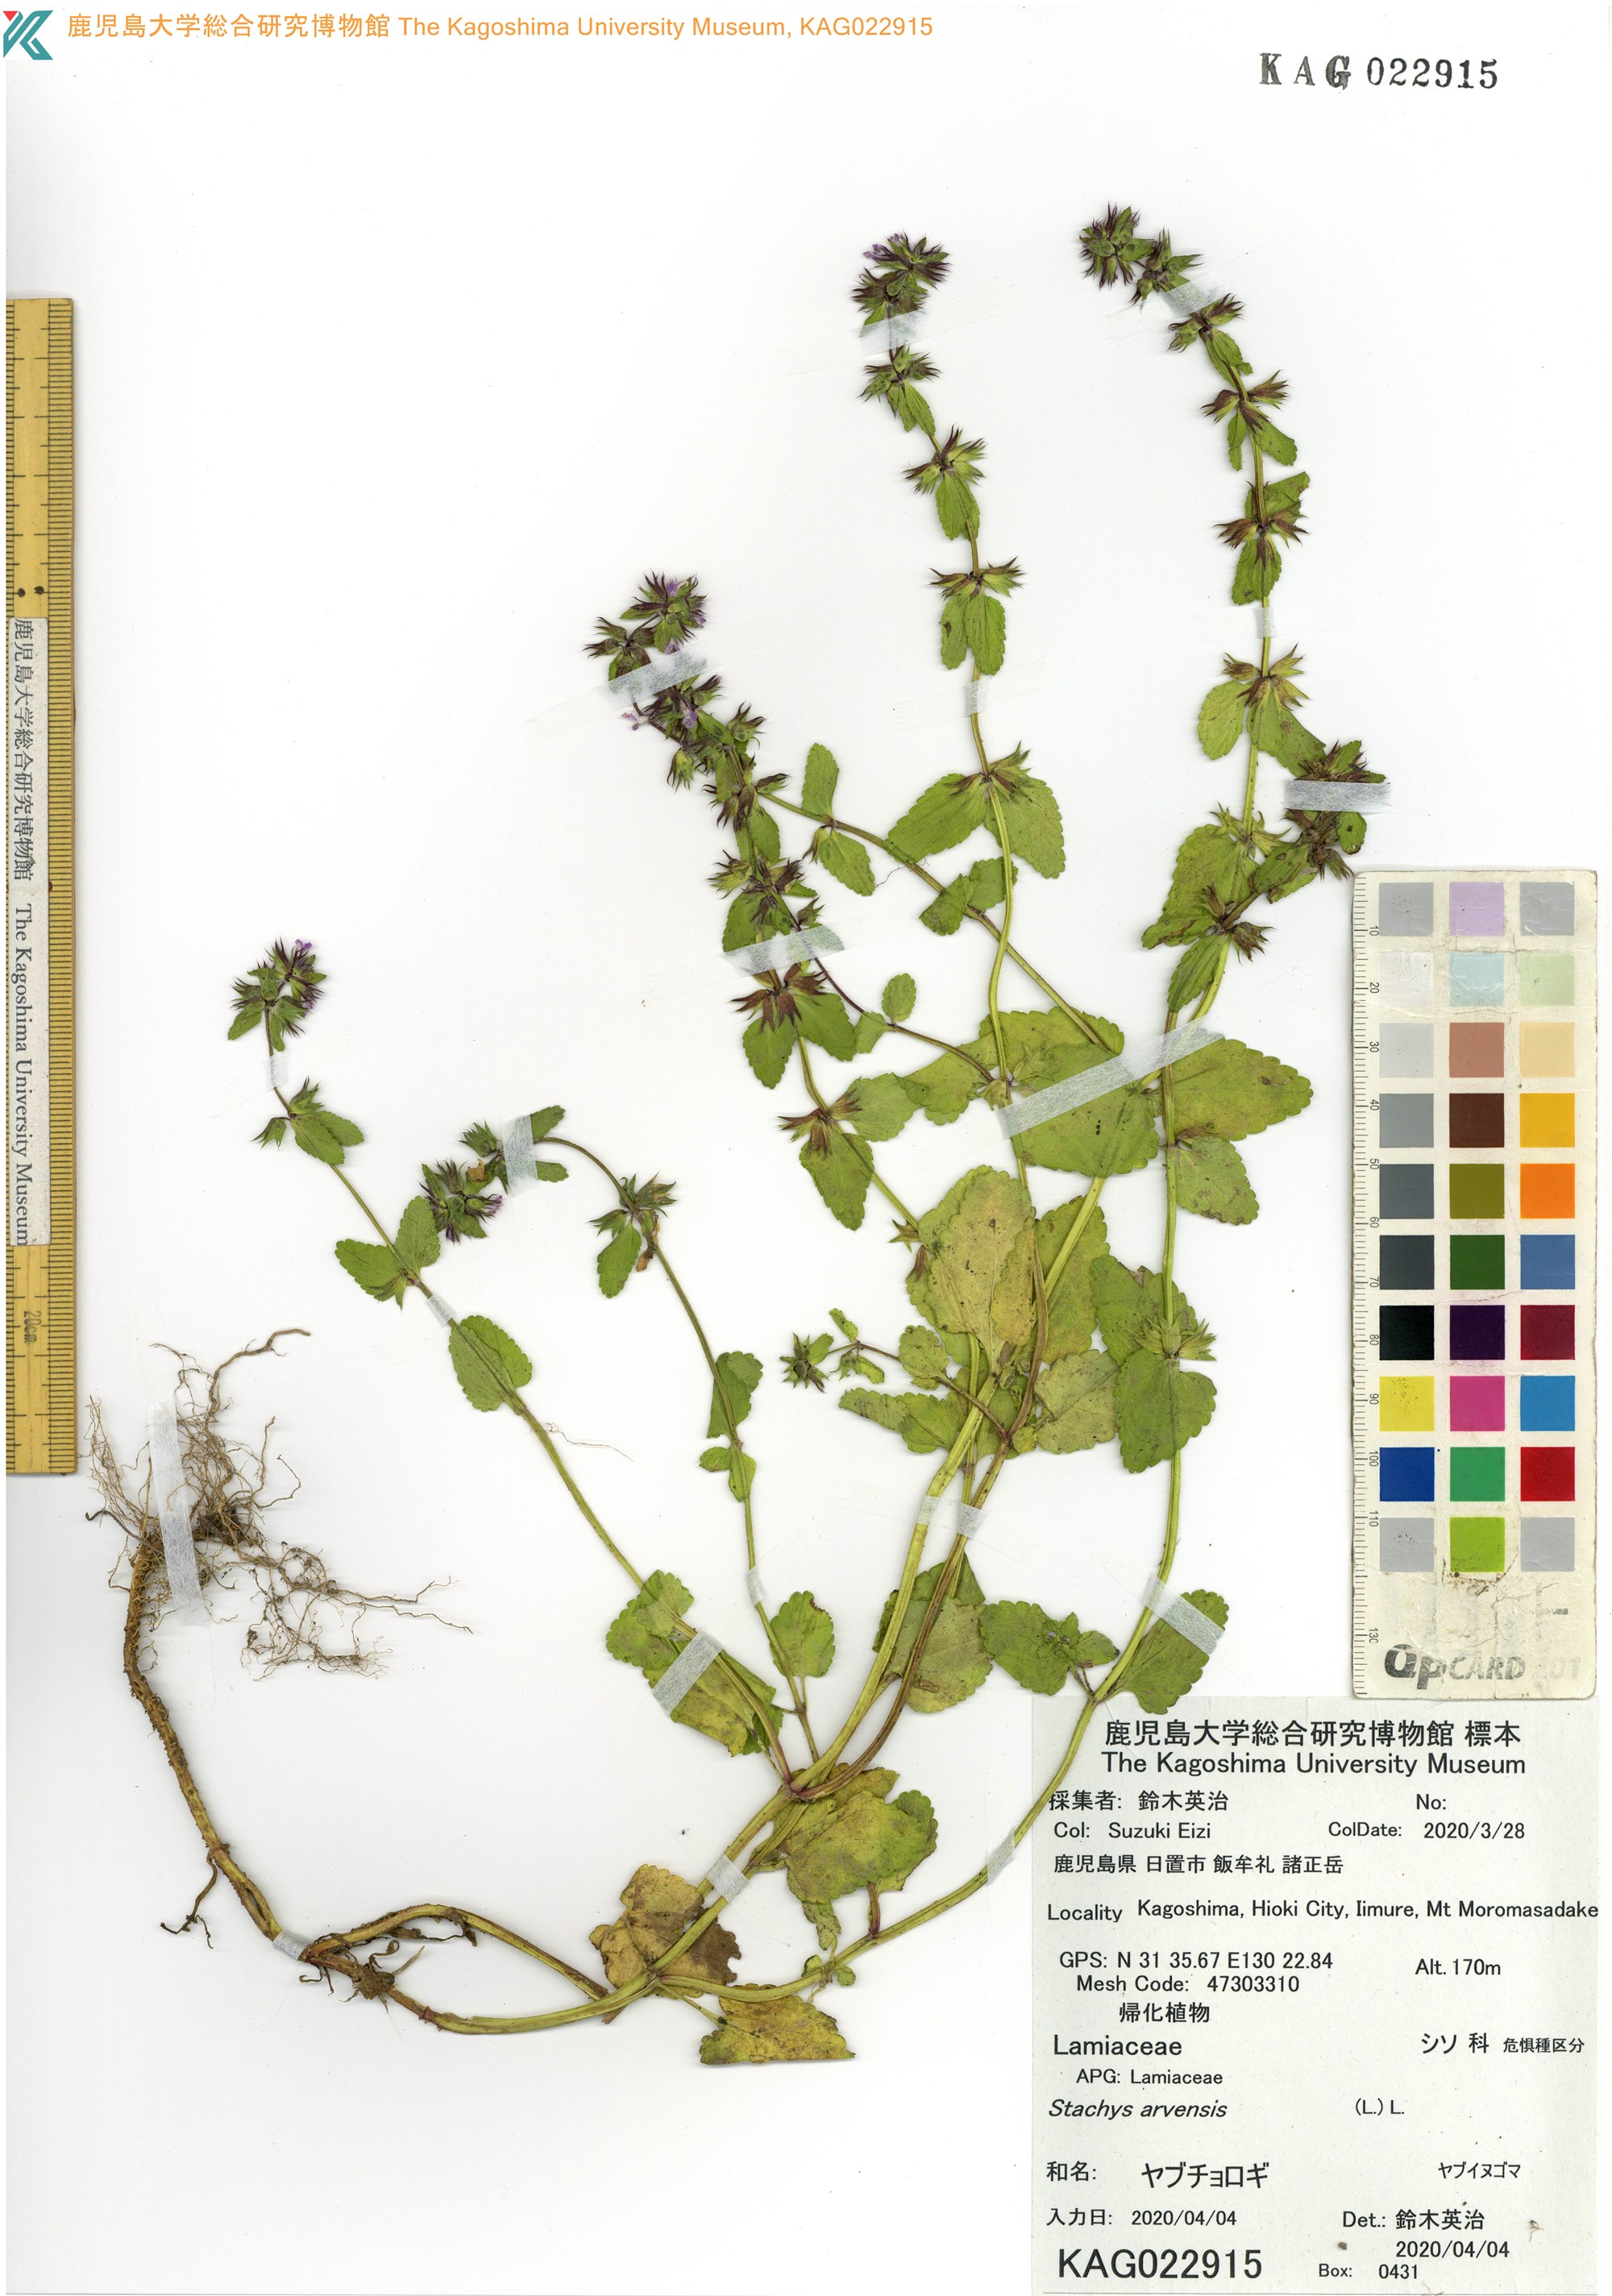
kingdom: Plantae
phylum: Tracheophyta
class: Magnoliopsida
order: Lamiales
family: Lamiaceae
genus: Stachys
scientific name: Stachys arvensis
